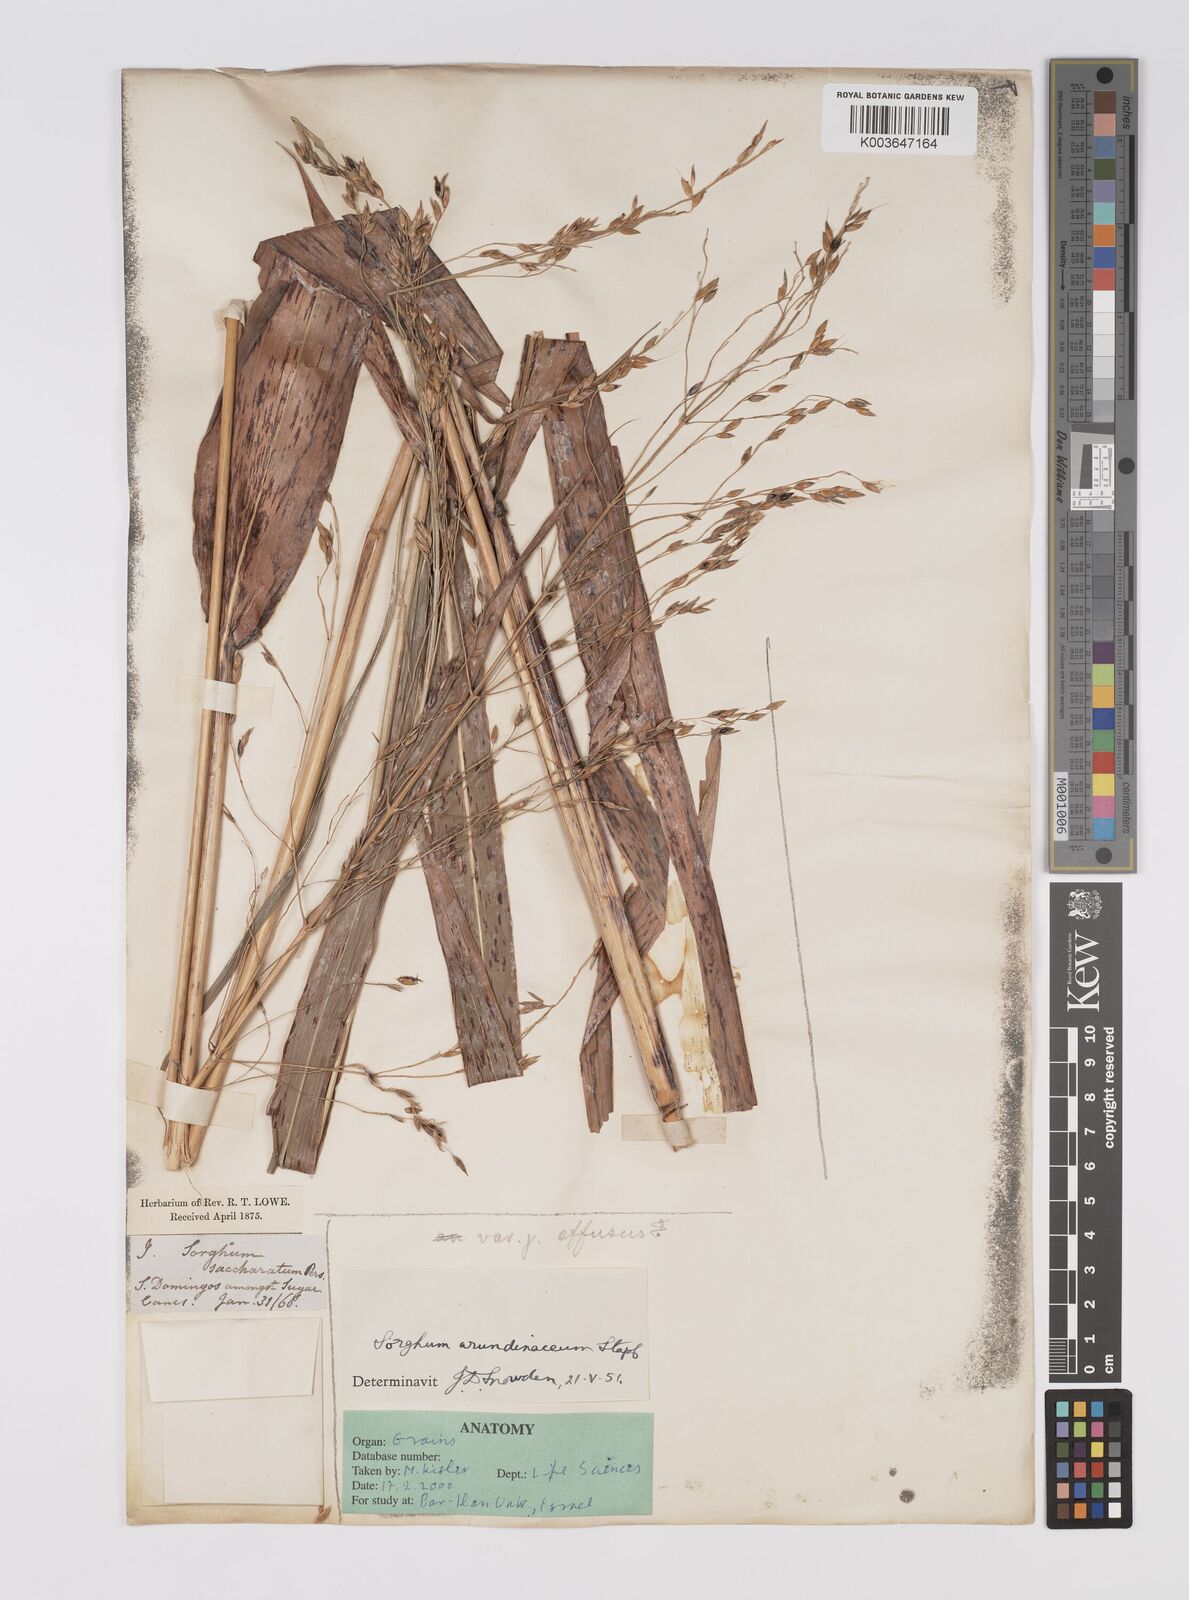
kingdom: Plantae
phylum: Tracheophyta
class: Liliopsida
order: Poales
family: Poaceae
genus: Sorghum
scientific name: Sorghum arundinaceum
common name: Sorghum
